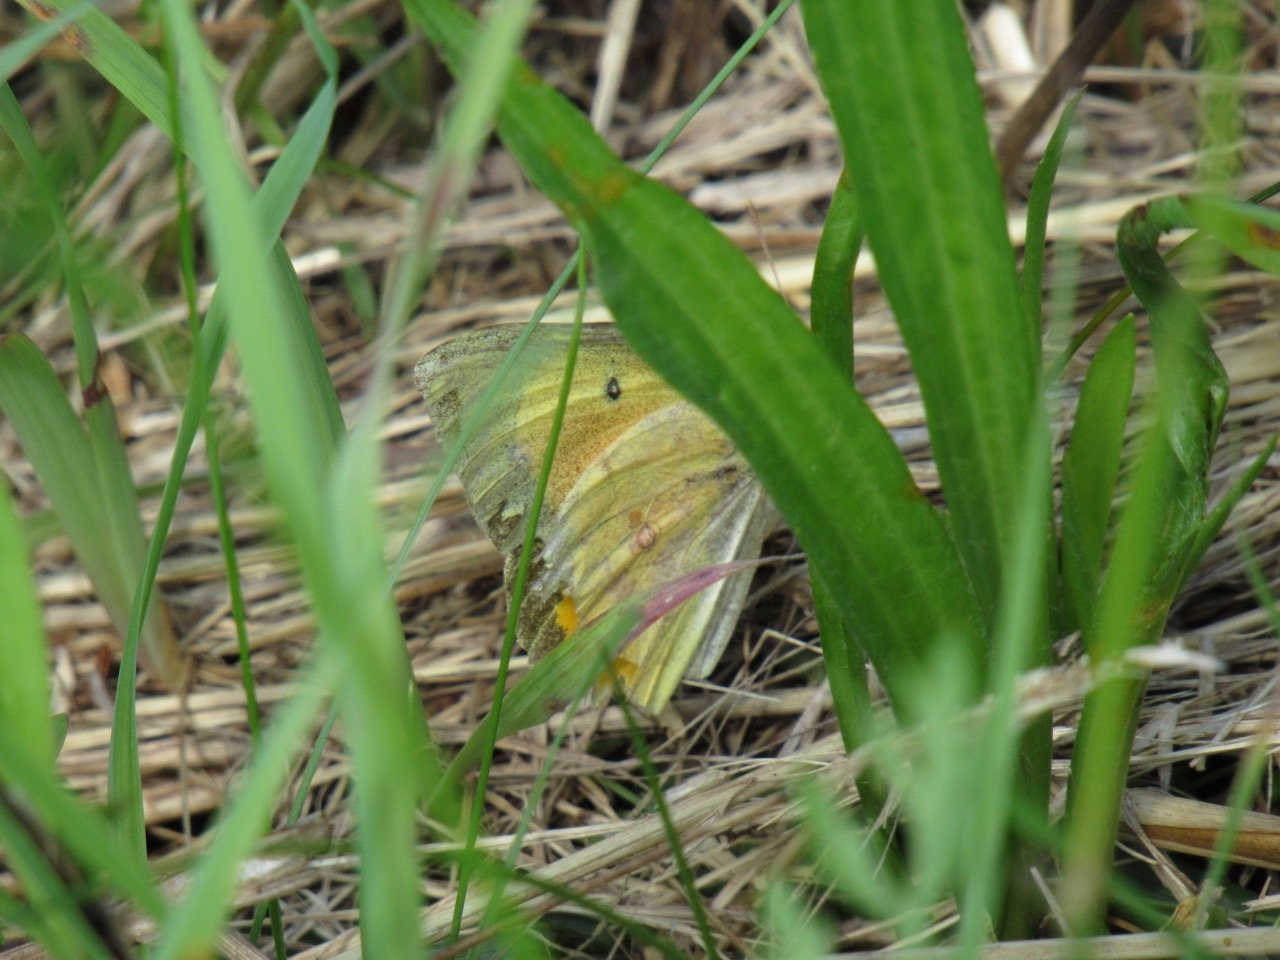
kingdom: Animalia
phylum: Arthropoda
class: Insecta
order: Lepidoptera
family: Pieridae
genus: Colias
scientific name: Colias eurytheme
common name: Orange Sulphur
